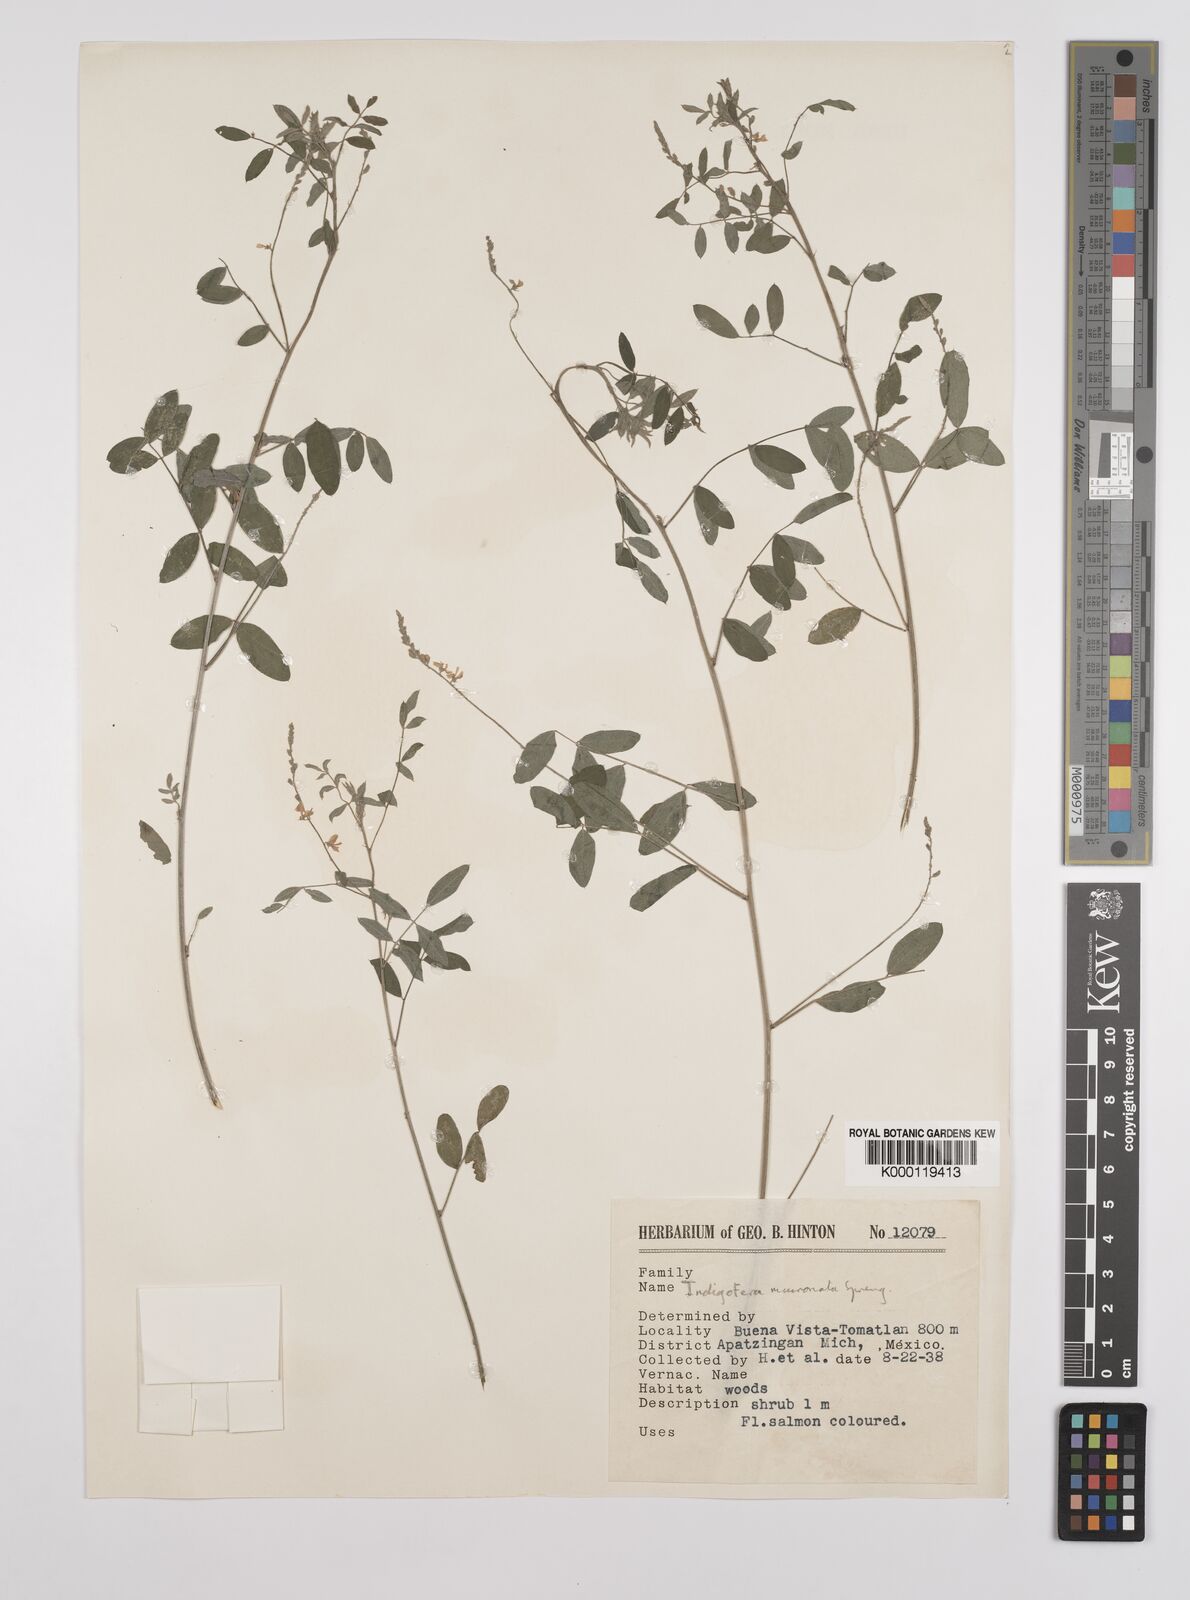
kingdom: Plantae
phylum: Tracheophyta
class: Magnoliopsida
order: Fabales
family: Fabaceae
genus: Indigofera
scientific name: Indigofera lespedezioides
